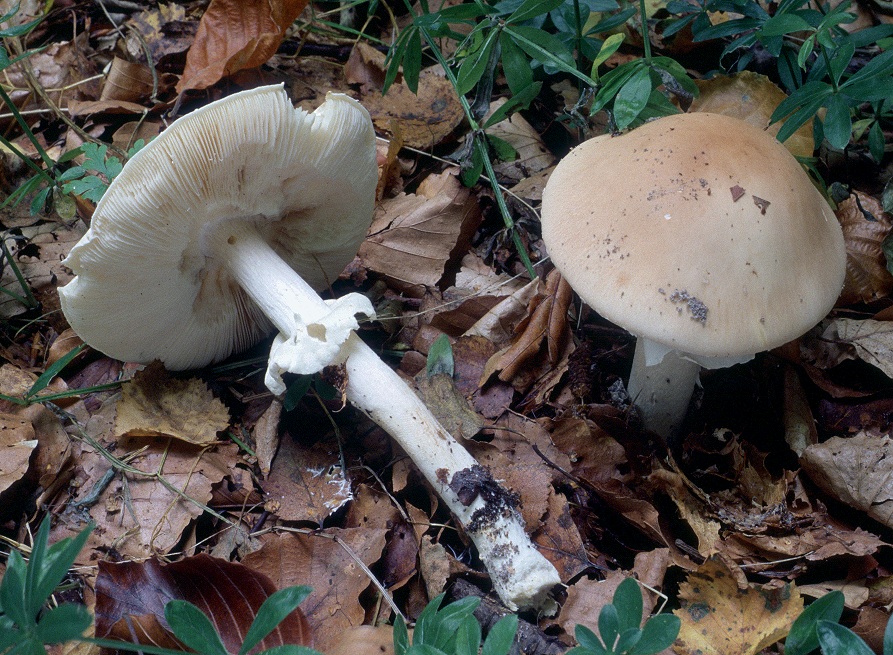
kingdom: Fungi
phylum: Basidiomycota
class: Agaricomycetes
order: Agaricales
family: Amanitaceae
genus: Limacellopsis
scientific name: Limacellopsis guttata
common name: tåre-snekkehat
